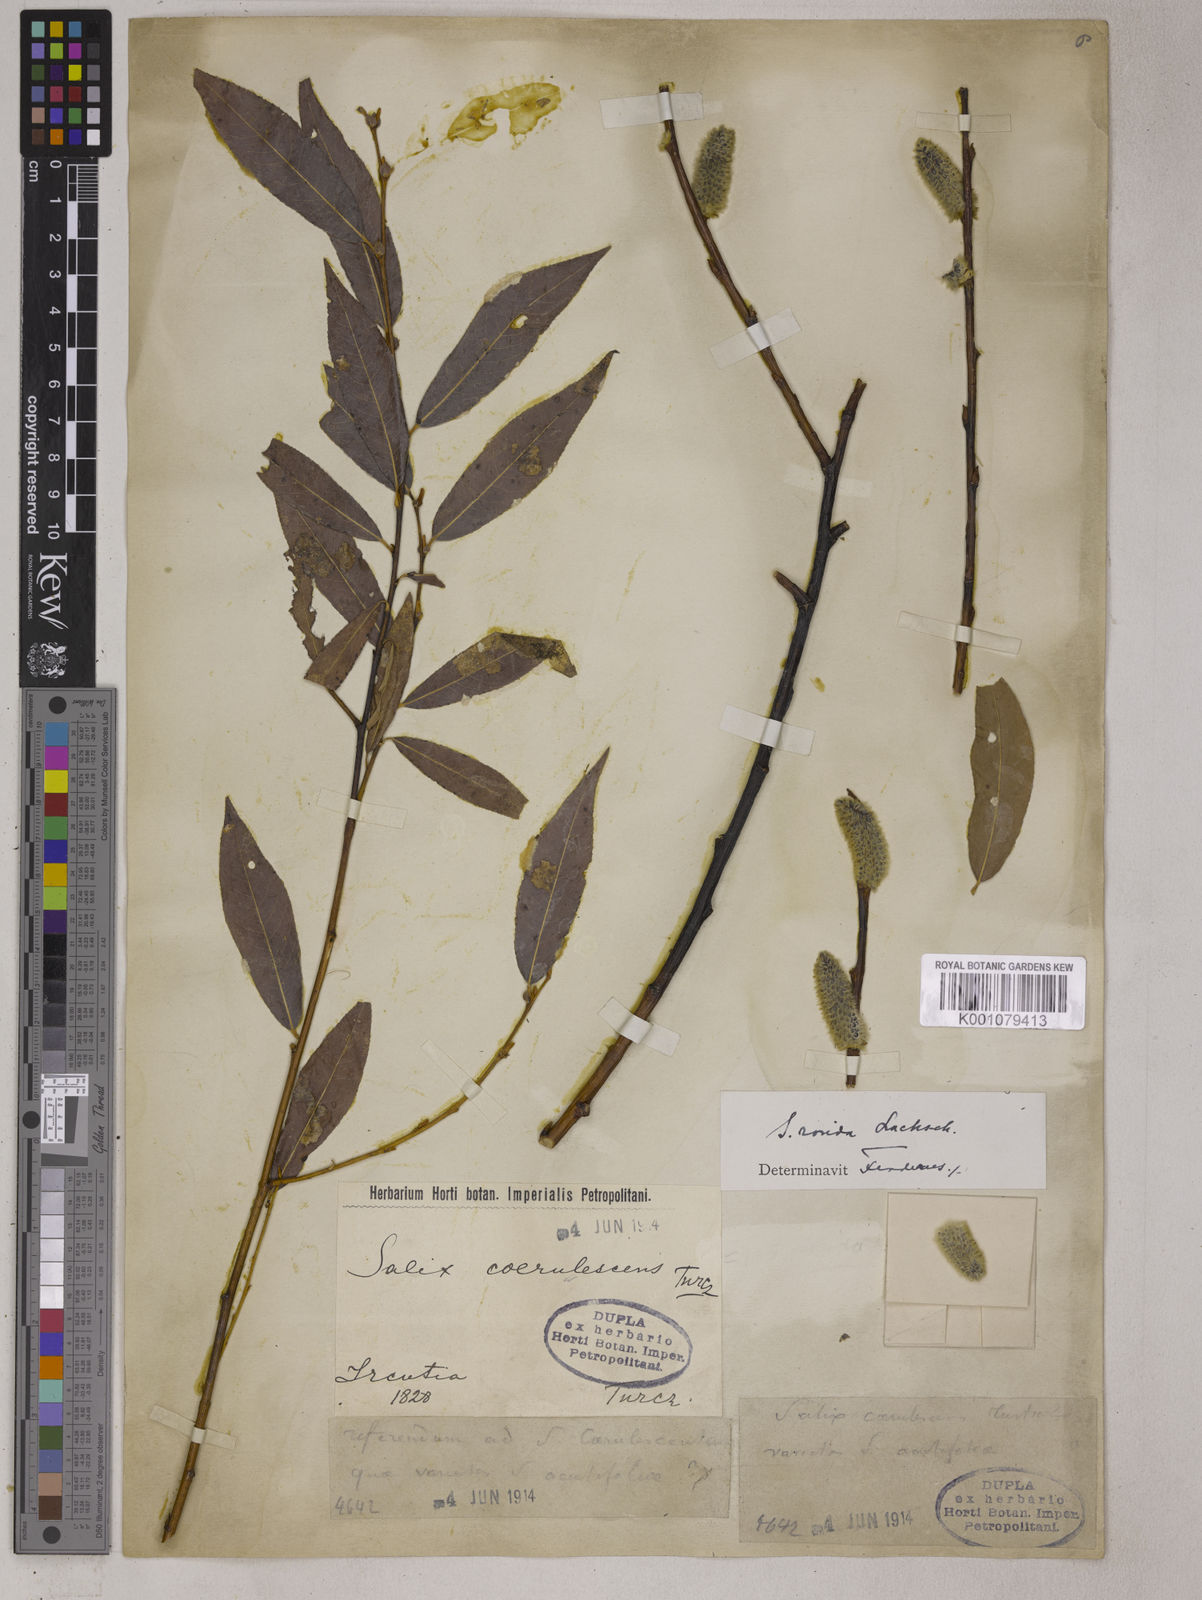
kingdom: Plantae
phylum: Tracheophyta
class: Magnoliopsida
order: Malpighiales
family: Salicaceae
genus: Salix
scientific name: Salix rorida
